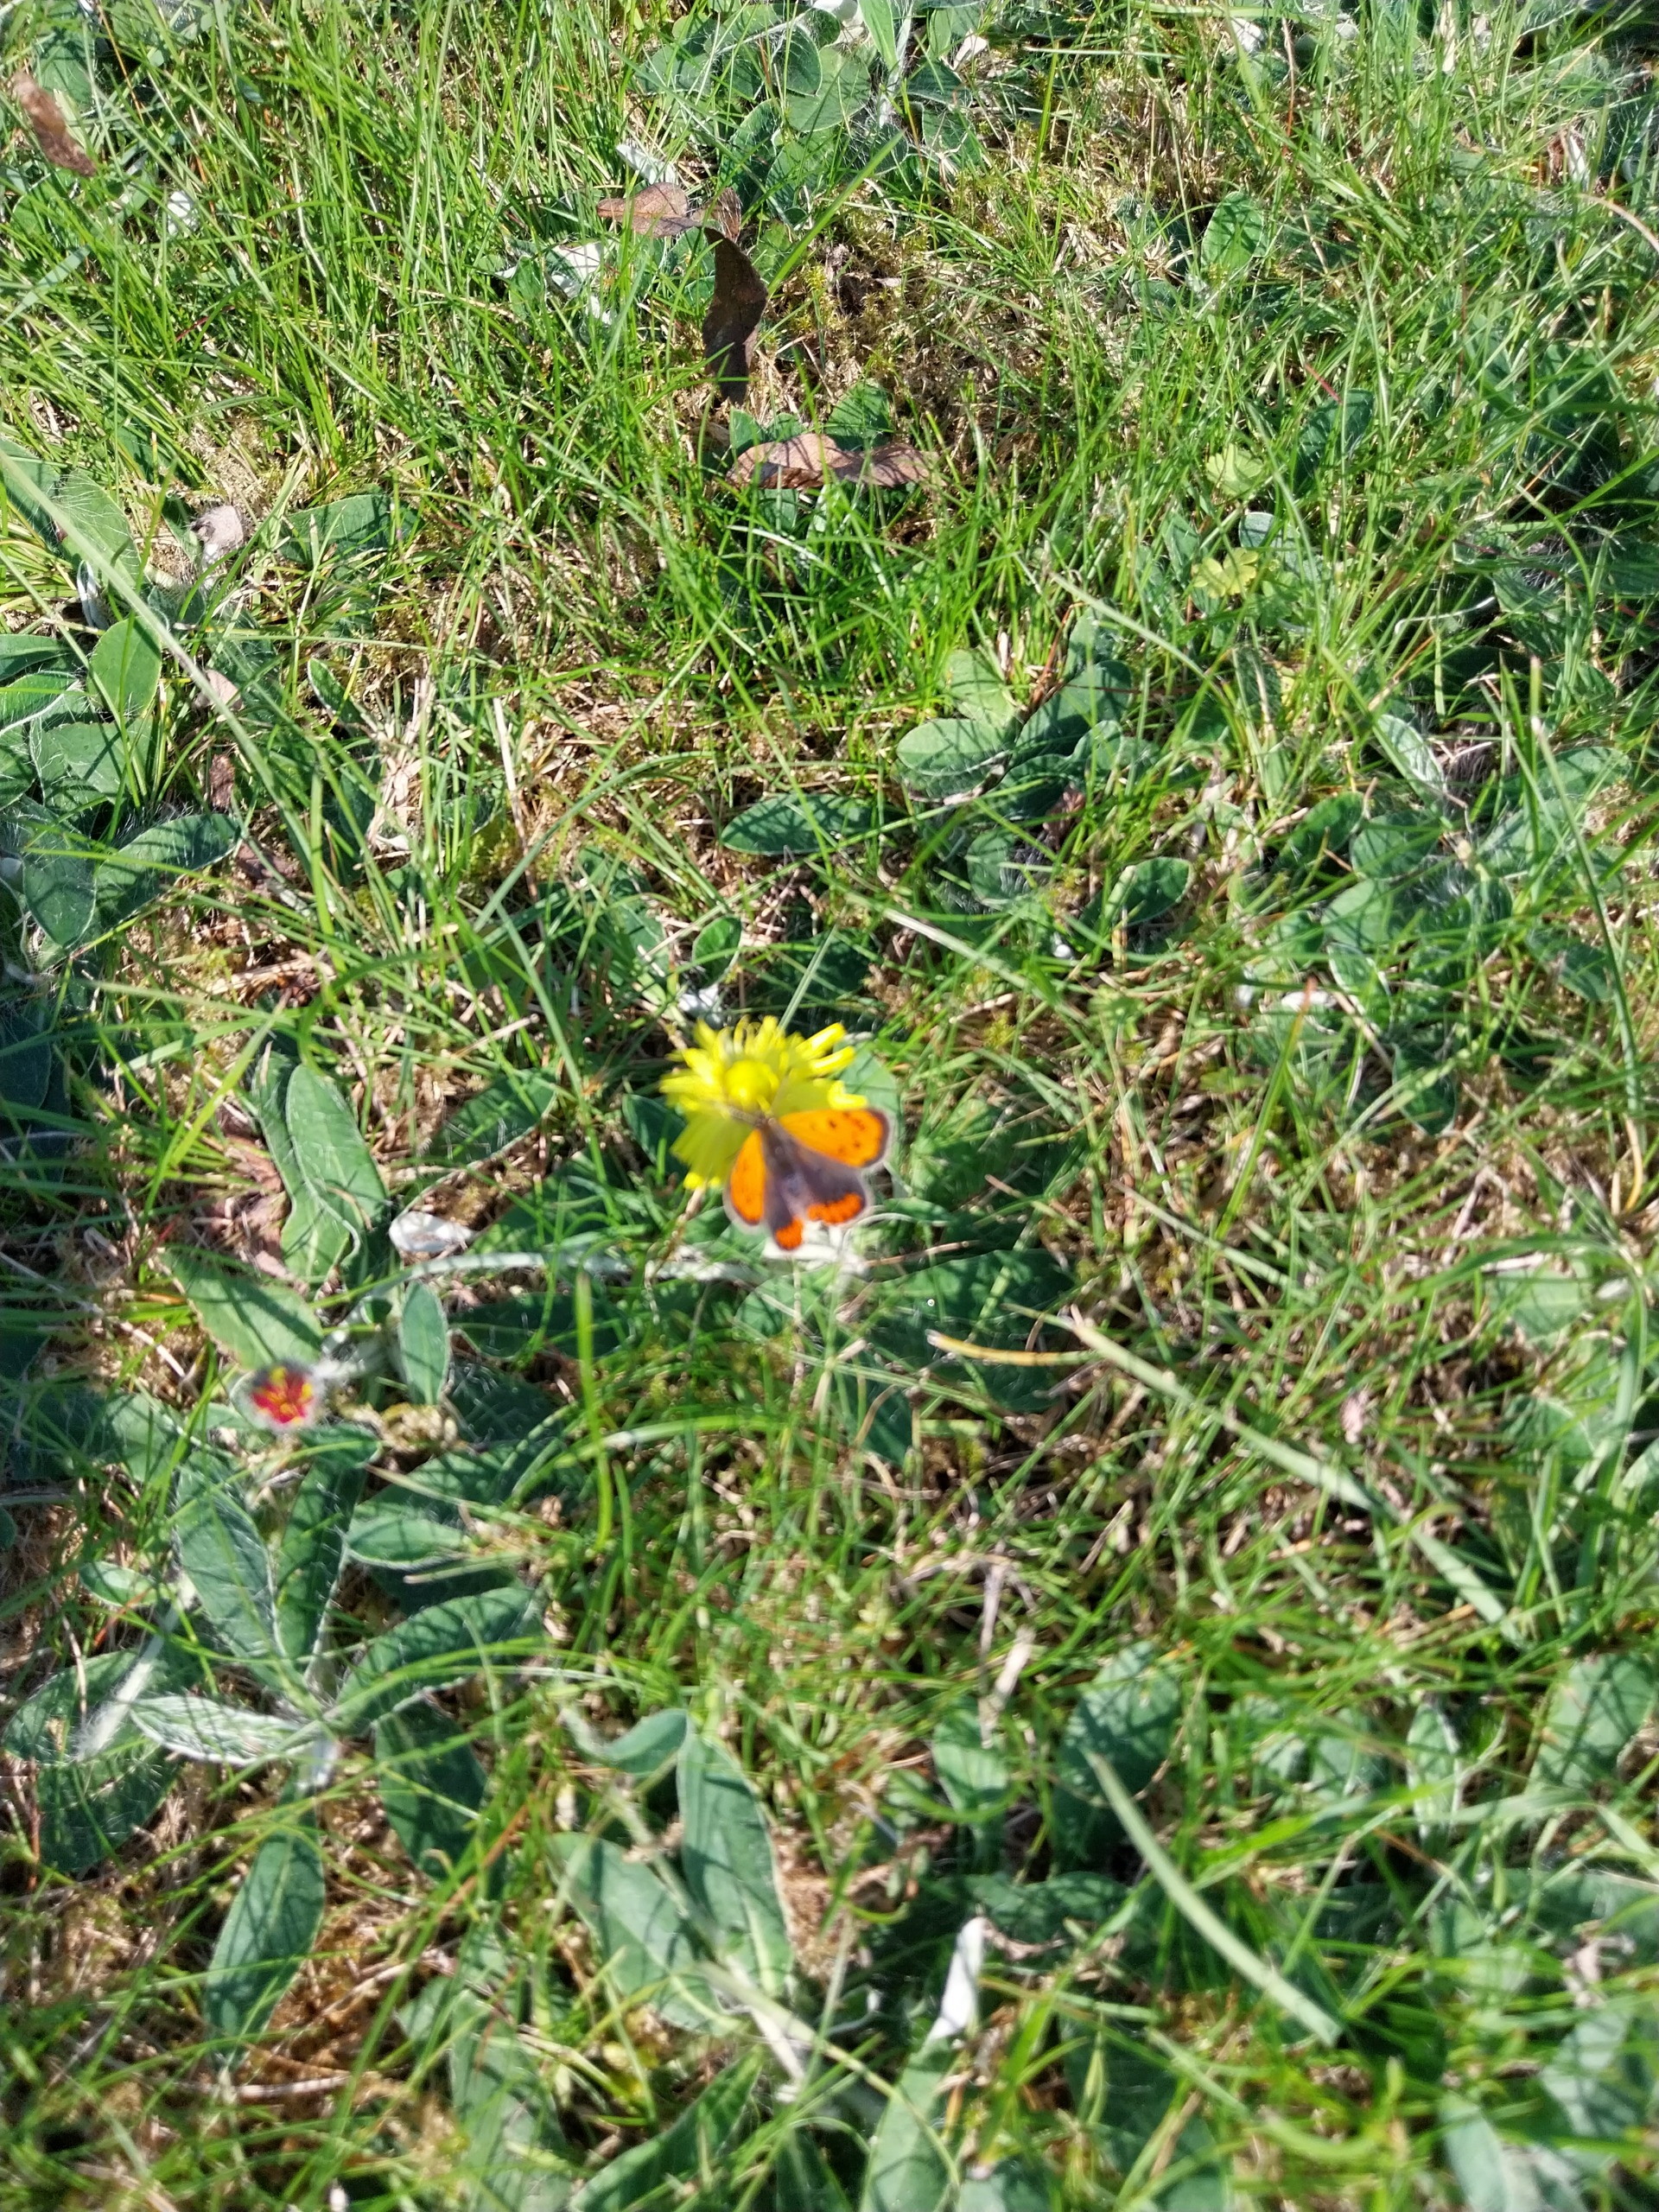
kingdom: Animalia
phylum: Arthropoda
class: Insecta
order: Lepidoptera
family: Lycaenidae
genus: Lycaena
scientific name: Lycaena phlaeas
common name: Lille ildfugl
